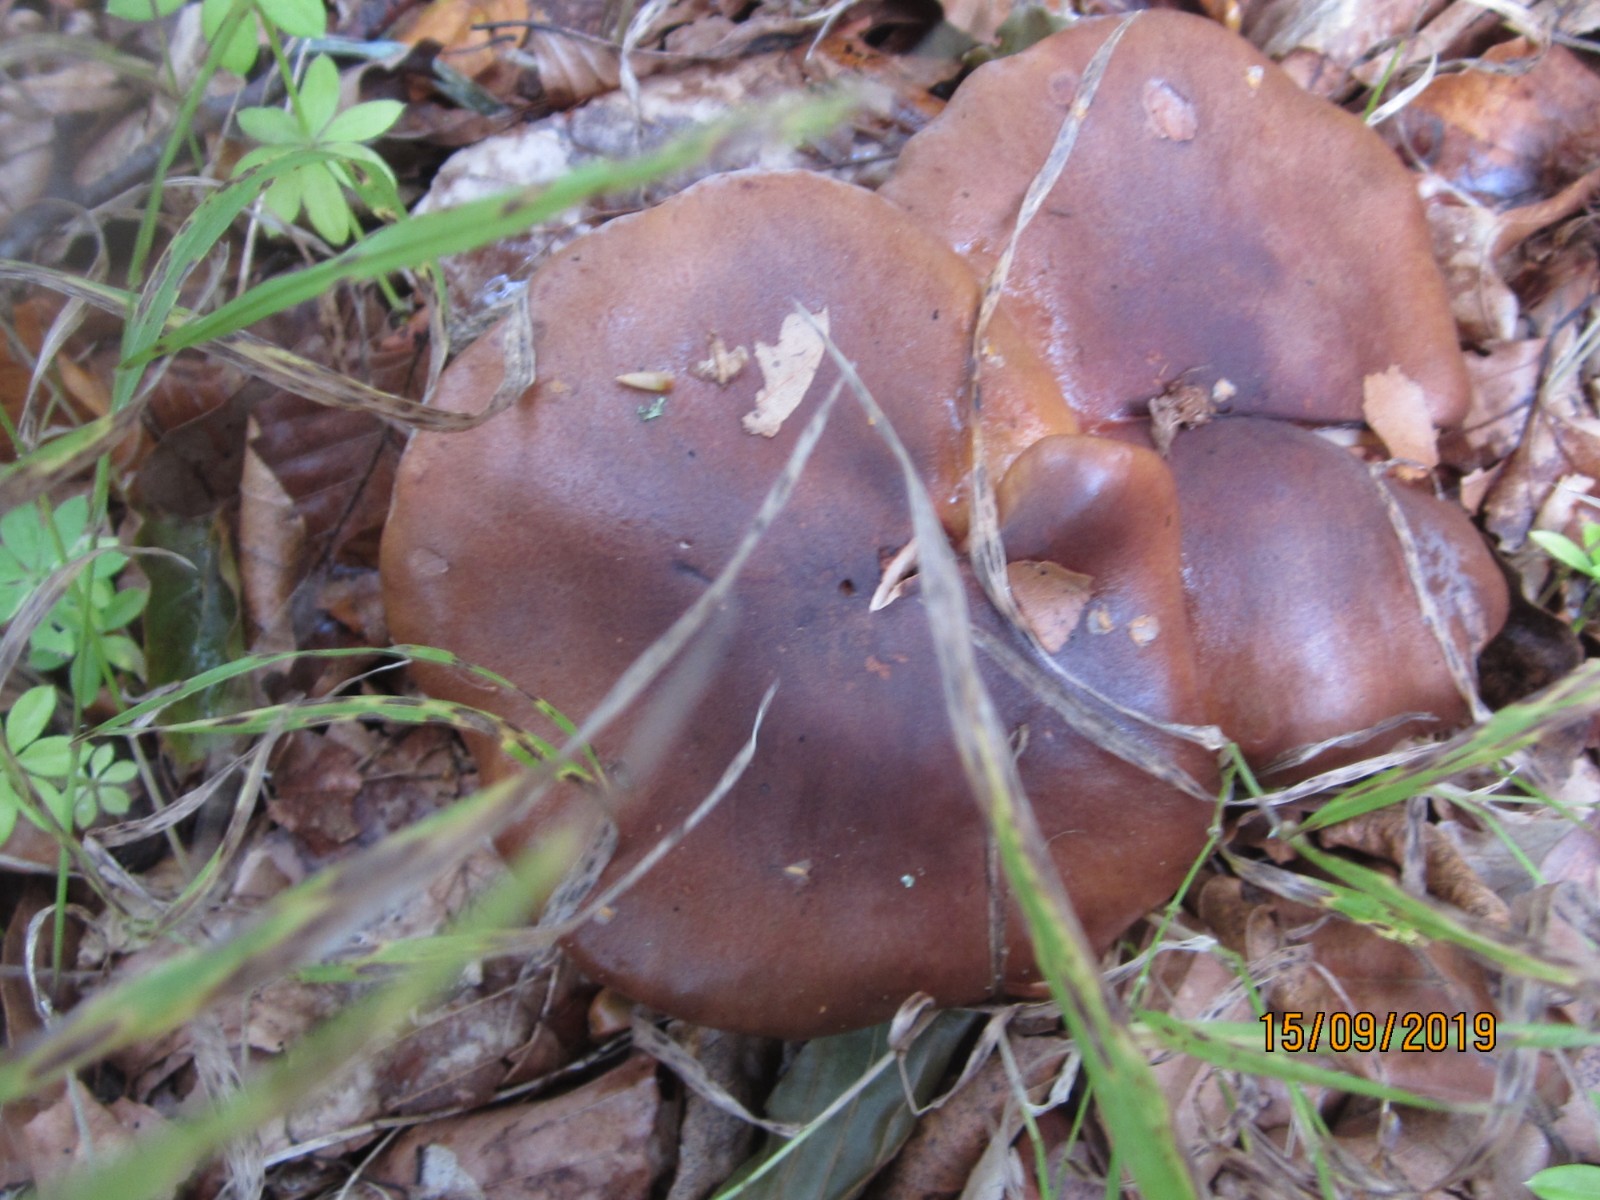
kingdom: Fungi
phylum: Basidiomycota
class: Agaricomycetes
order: Agaricales
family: Tricholomataceae
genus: Tricholoma
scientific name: Tricholoma ustale
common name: sveden ridderhat
